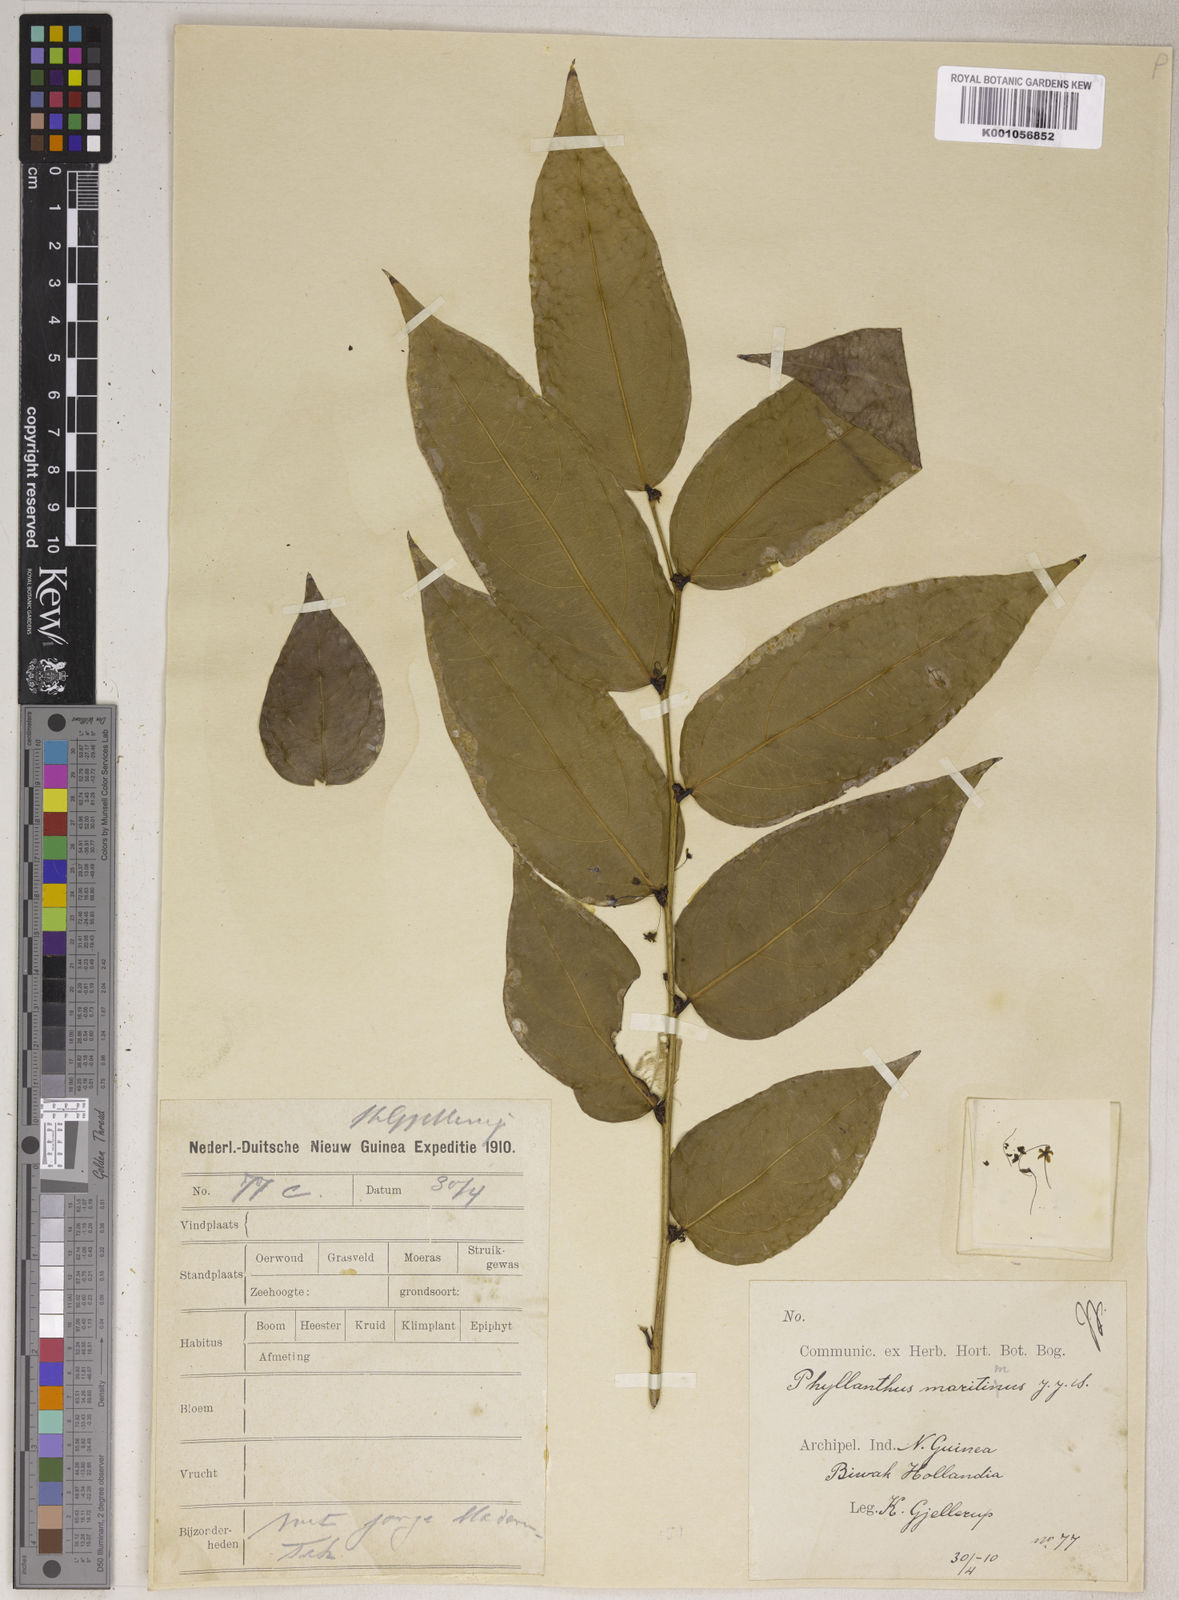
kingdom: Plantae
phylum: Tracheophyta
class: Magnoliopsida
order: Malpighiales
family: Phyllanthaceae
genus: Phyllanthus
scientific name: Phyllanthus maritimus
